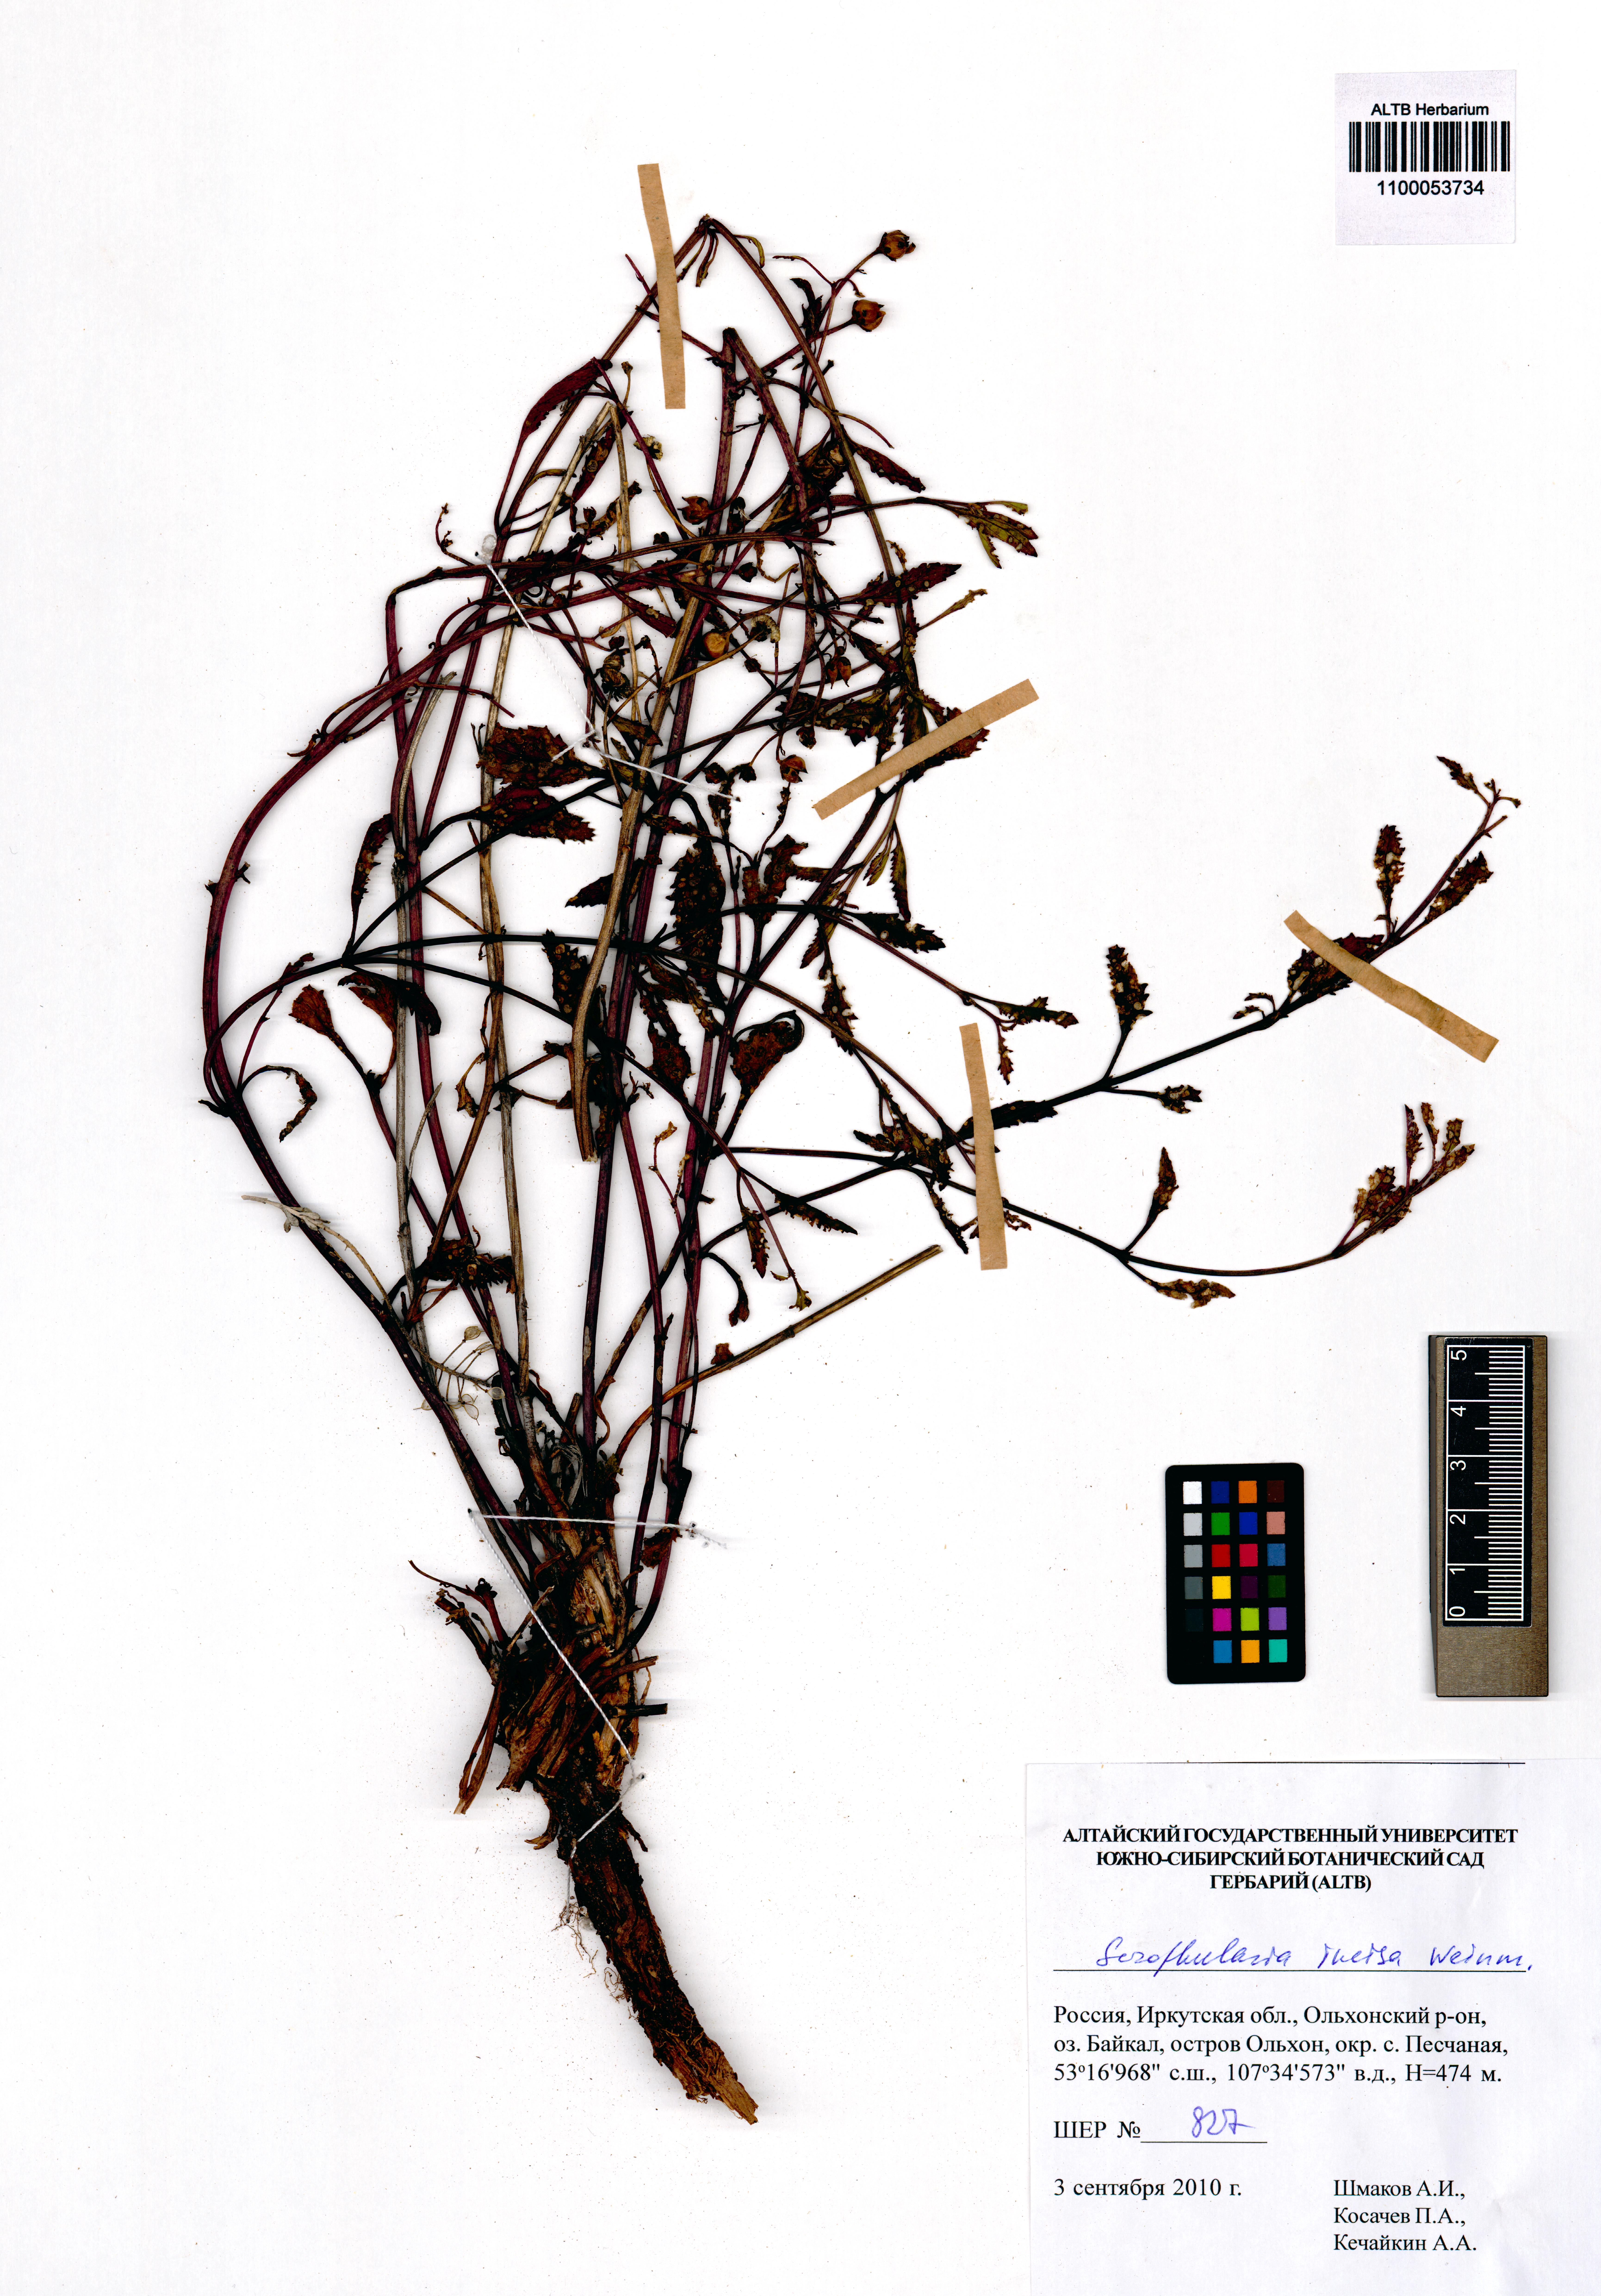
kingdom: Plantae
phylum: Tracheophyta
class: Magnoliopsida
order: Lamiales
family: Scrophulariaceae
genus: Scrophularia
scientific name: Scrophularia incisa
